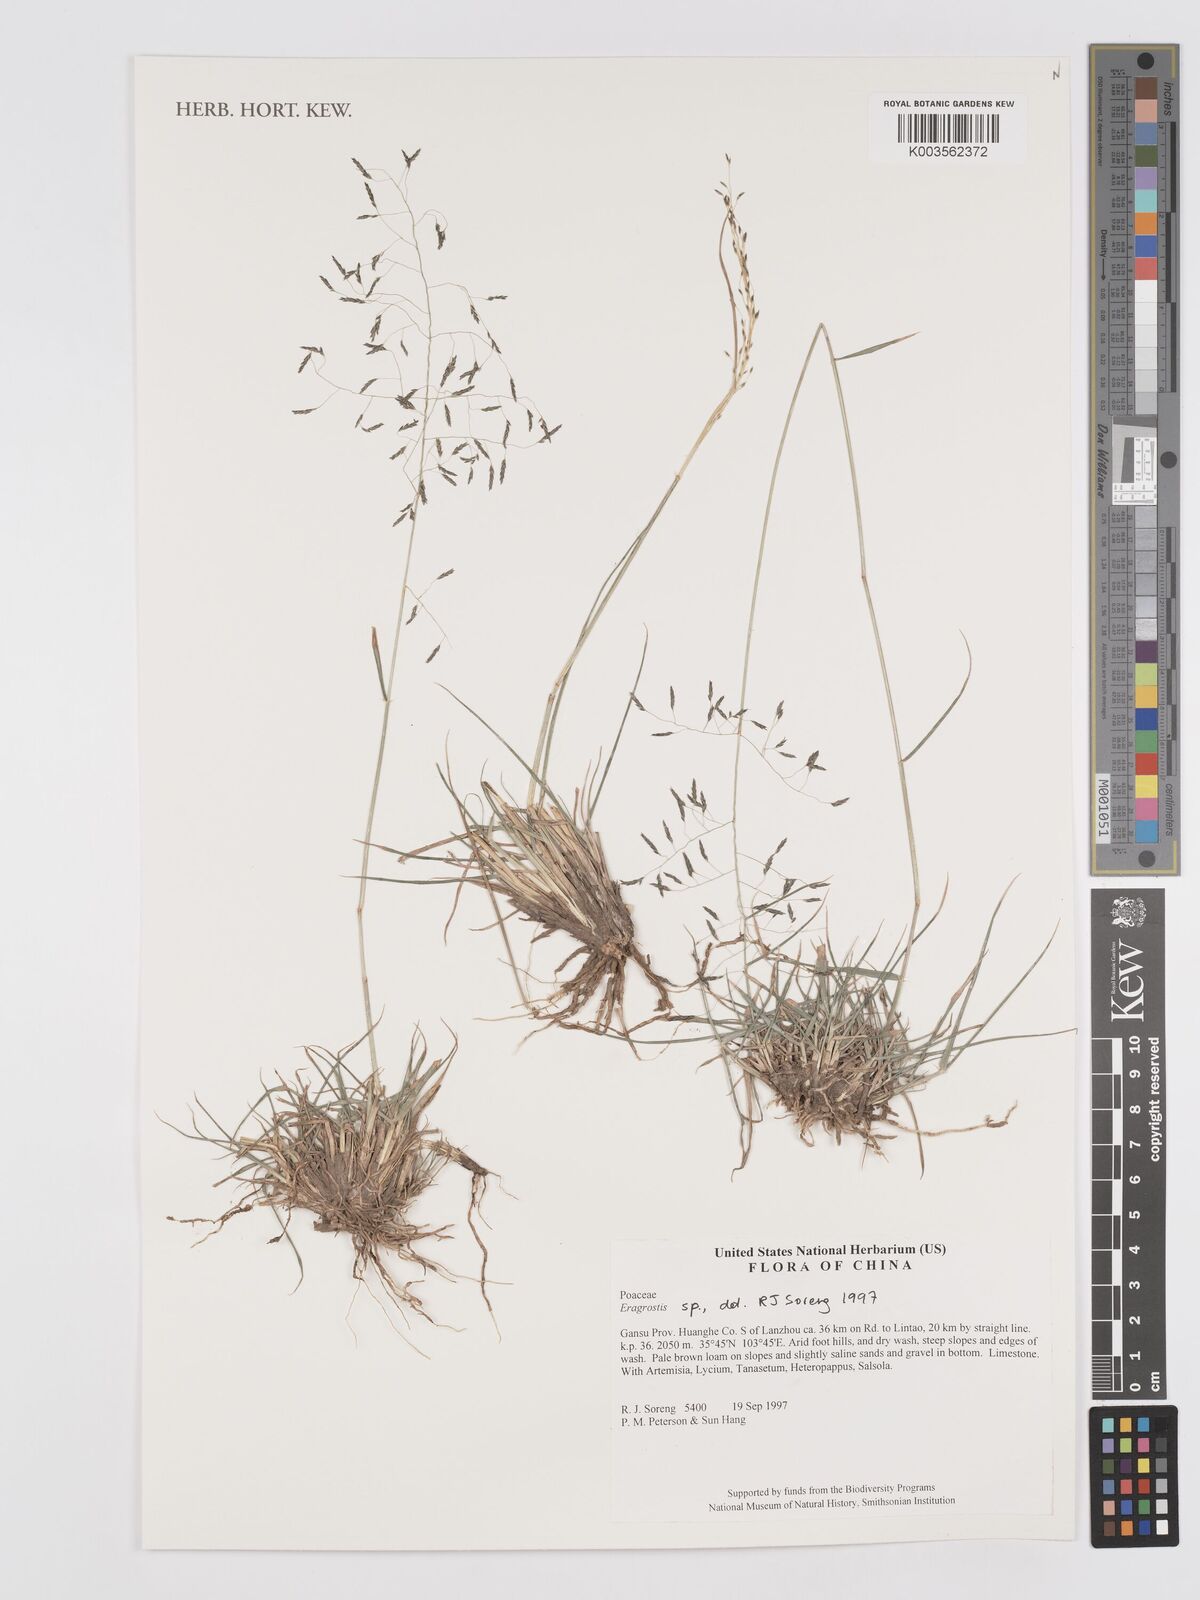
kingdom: Plantae
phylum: Tracheophyta
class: Liliopsida
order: Poales
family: Poaceae
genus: Eragrostis
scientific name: Eragrostis
